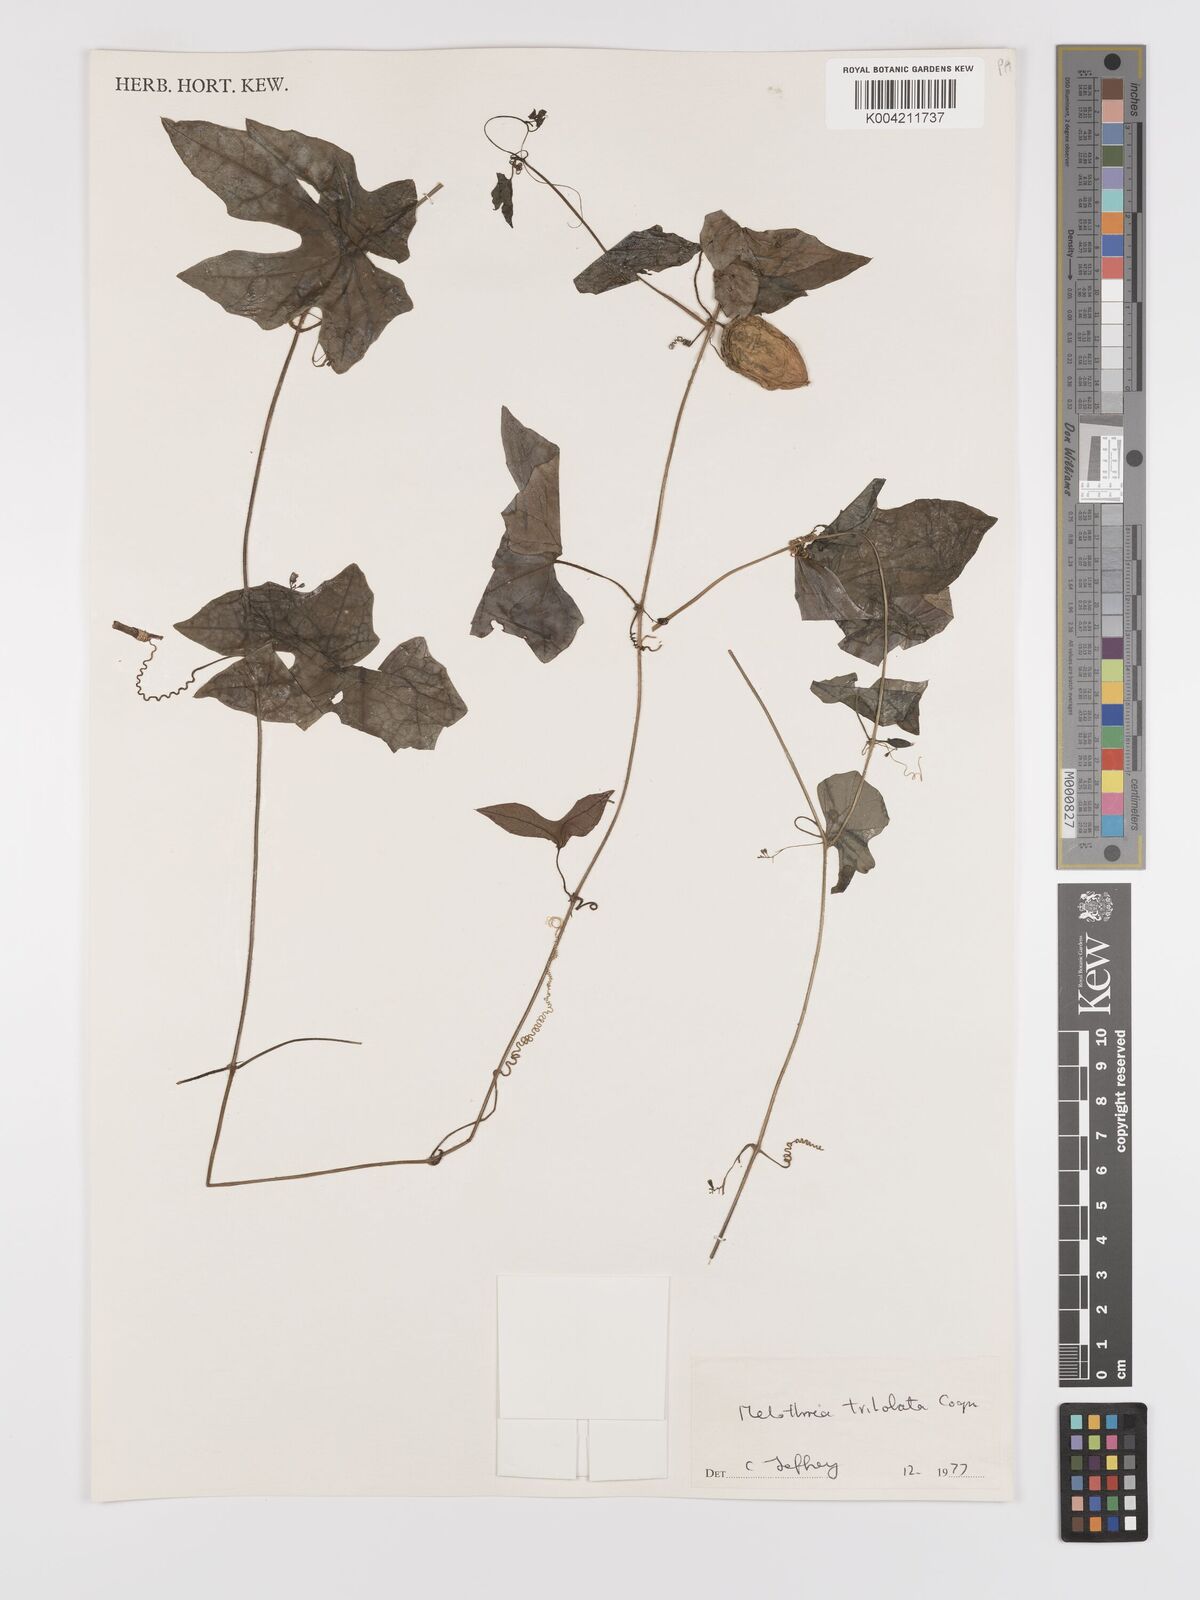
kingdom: Plantae
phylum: Tracheophyta
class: Magnoliopsida
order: Cucurbitales
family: Cucurbitaceae
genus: Melothria
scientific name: Melothria trilobata
